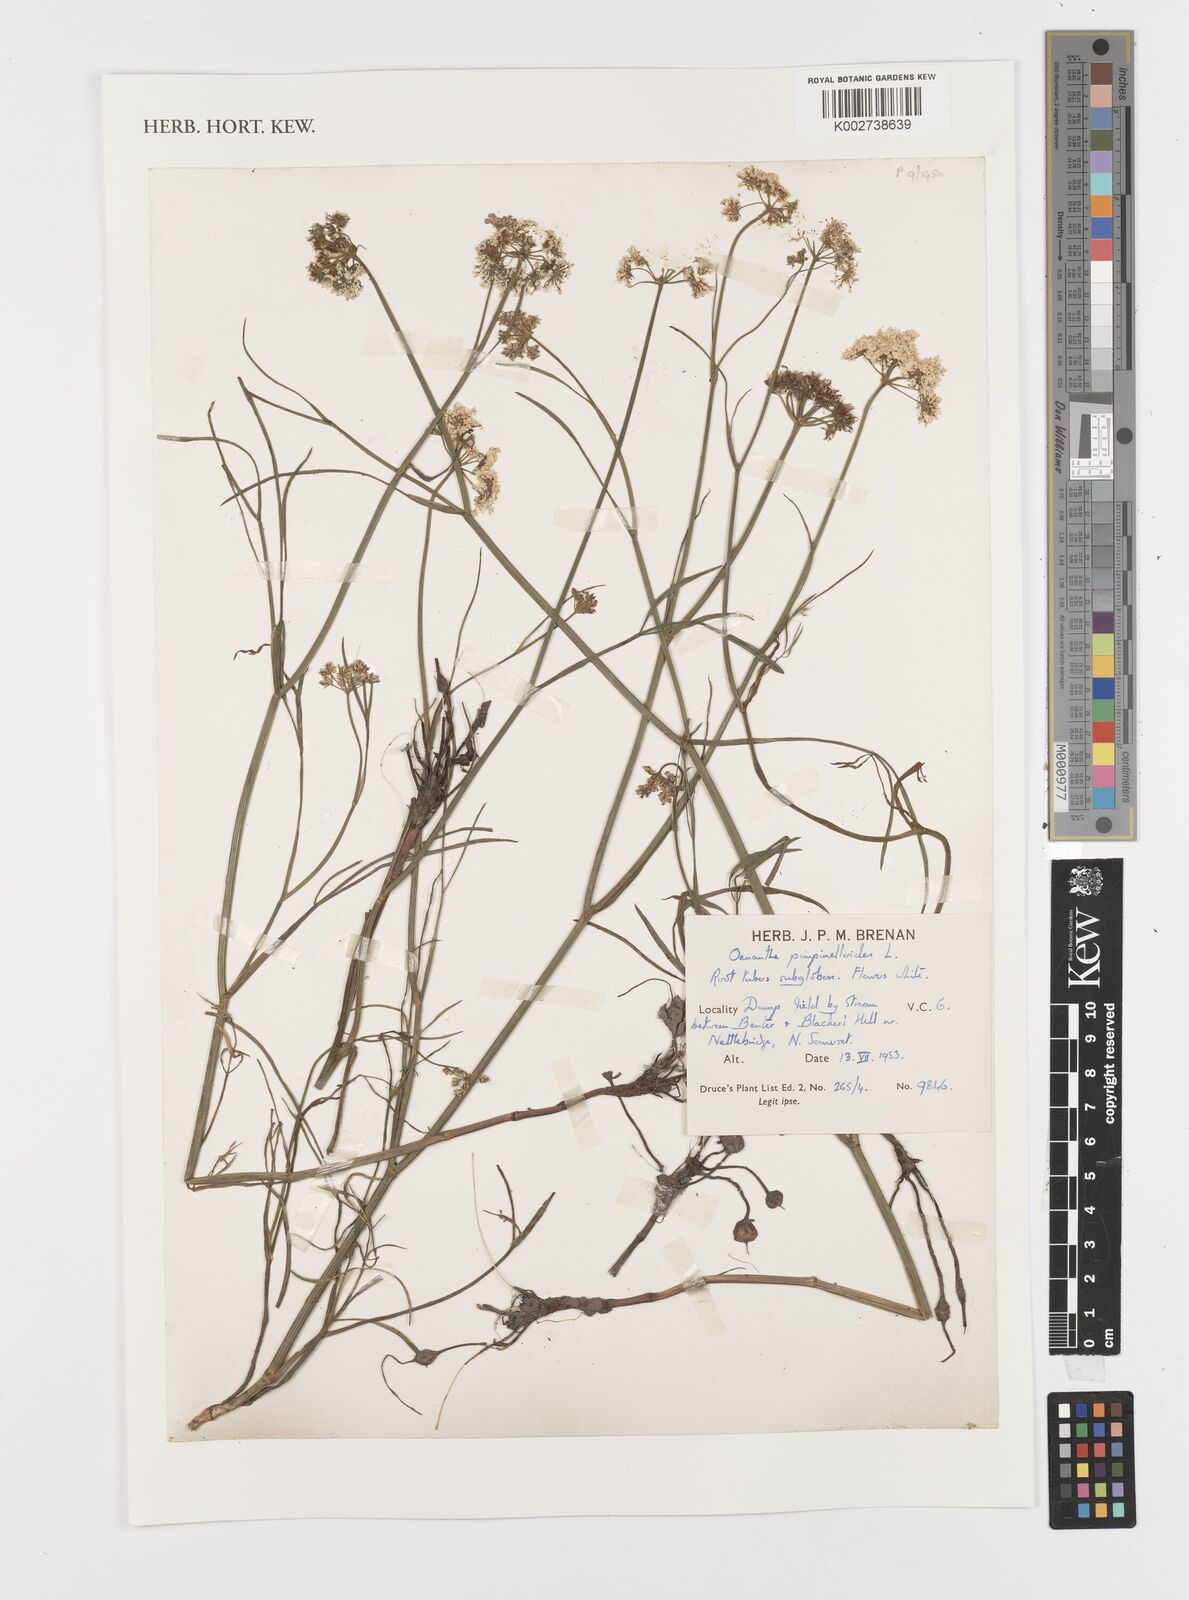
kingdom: Plantae
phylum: Tracheophyta
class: Magnoliopsida
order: Apiales
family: Apiaceae
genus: Oenanthe
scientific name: Oenanthe pimpinelloides
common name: Corky-fruited water-dropwort
